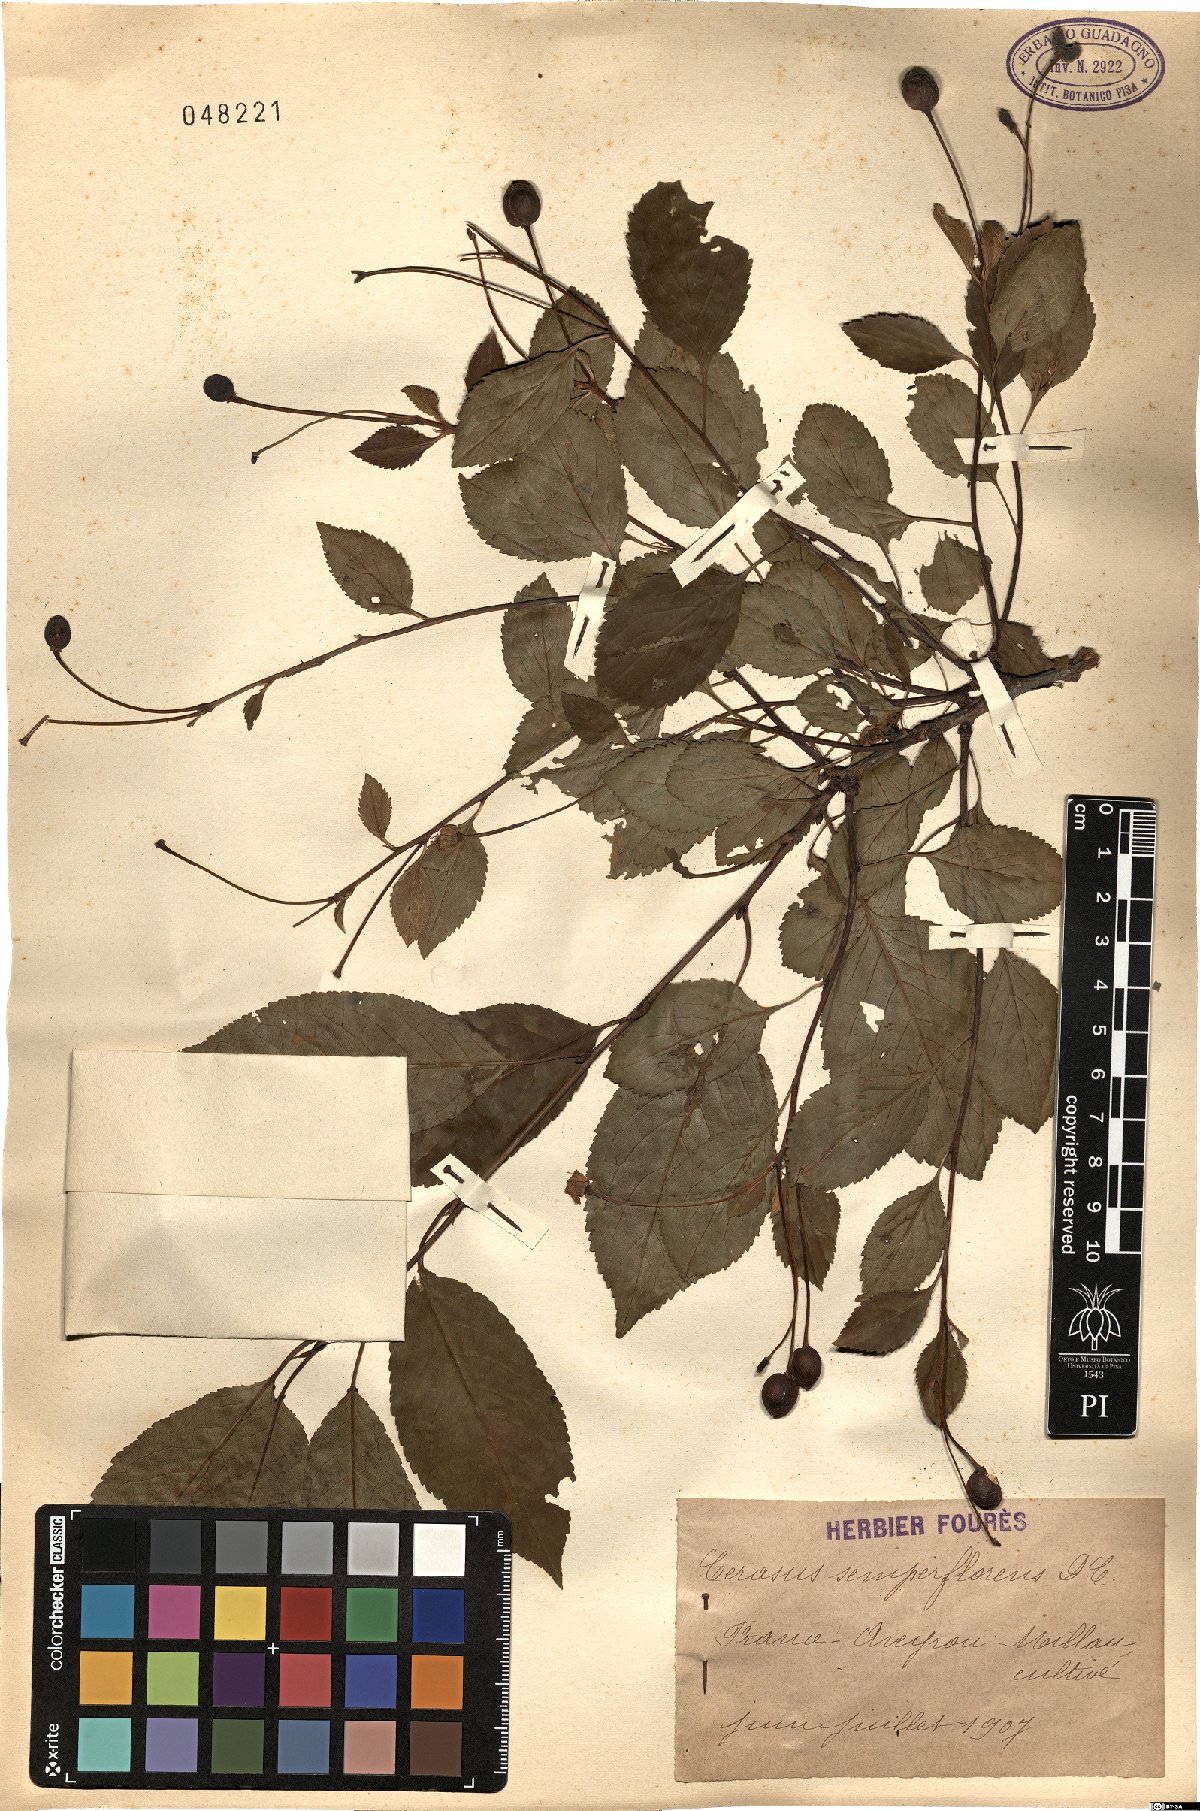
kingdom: Plantae
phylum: Tracheophyta
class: Magnoliopsida
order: Rosales
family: Rosaceae
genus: Prunus
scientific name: Prunus Cerasus semperflorens
